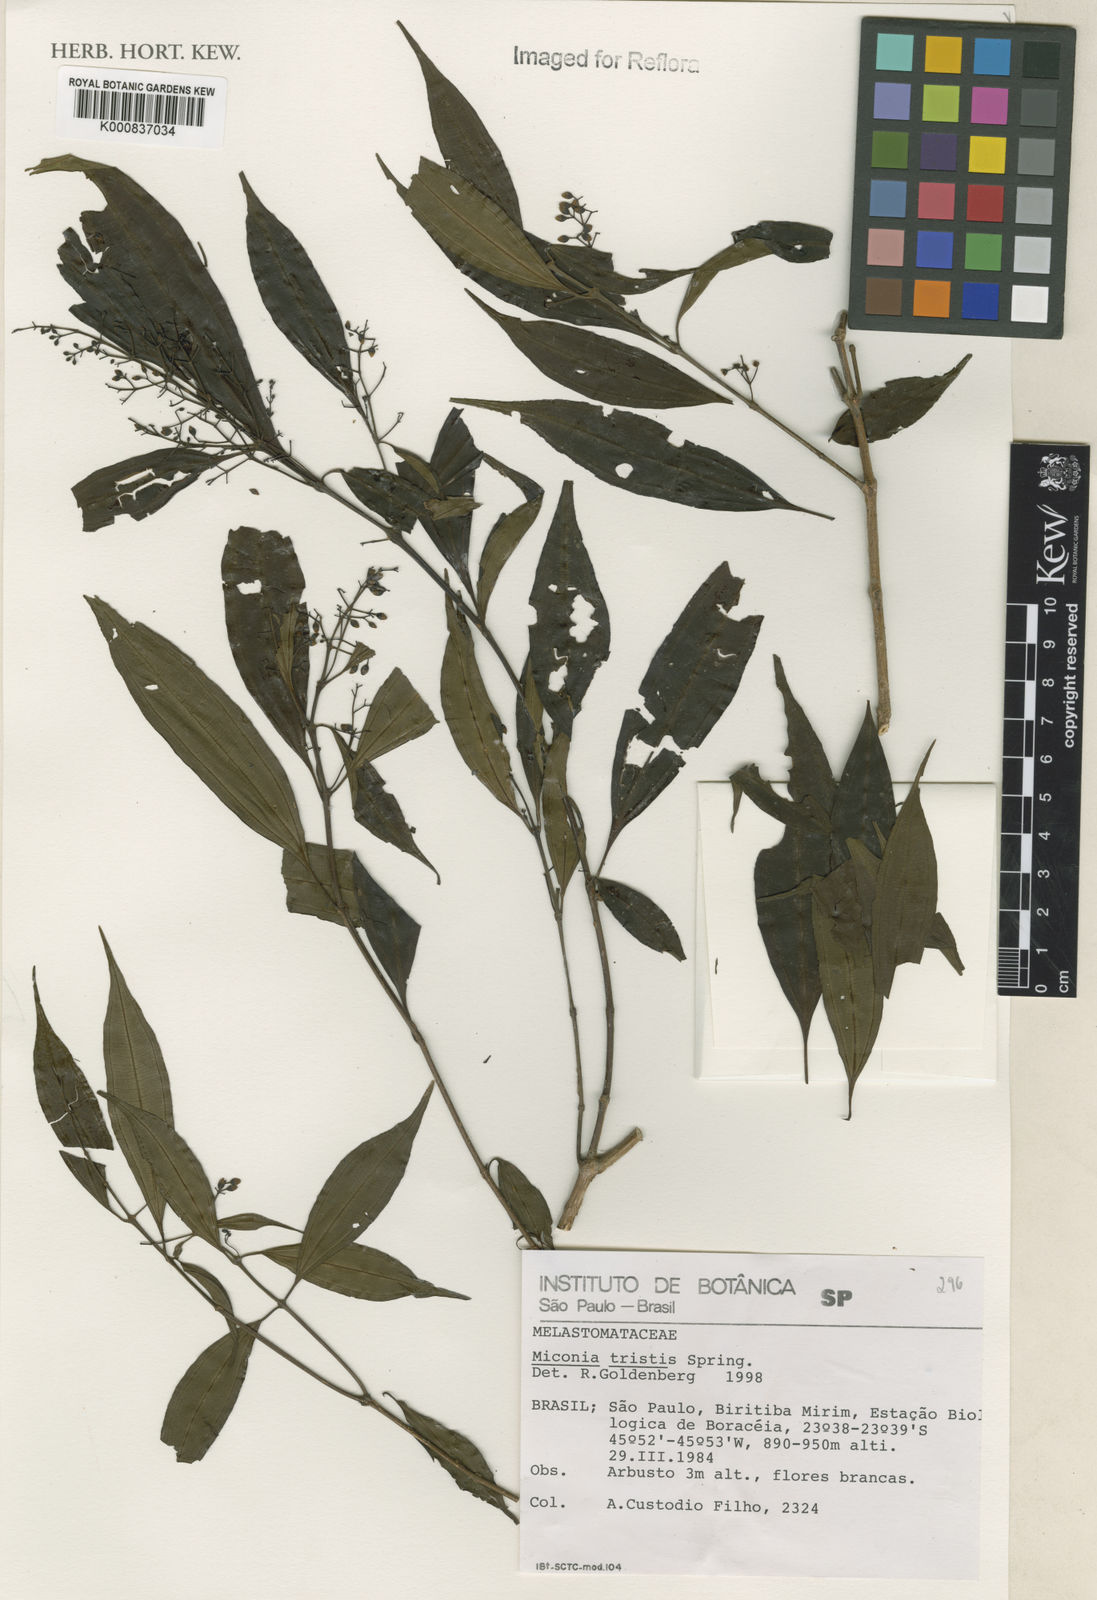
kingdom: Plantae
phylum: Tracheophyta
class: Magnoliopsida
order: Myrtales
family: Melastomataceae
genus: Miconia
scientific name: Miconia
